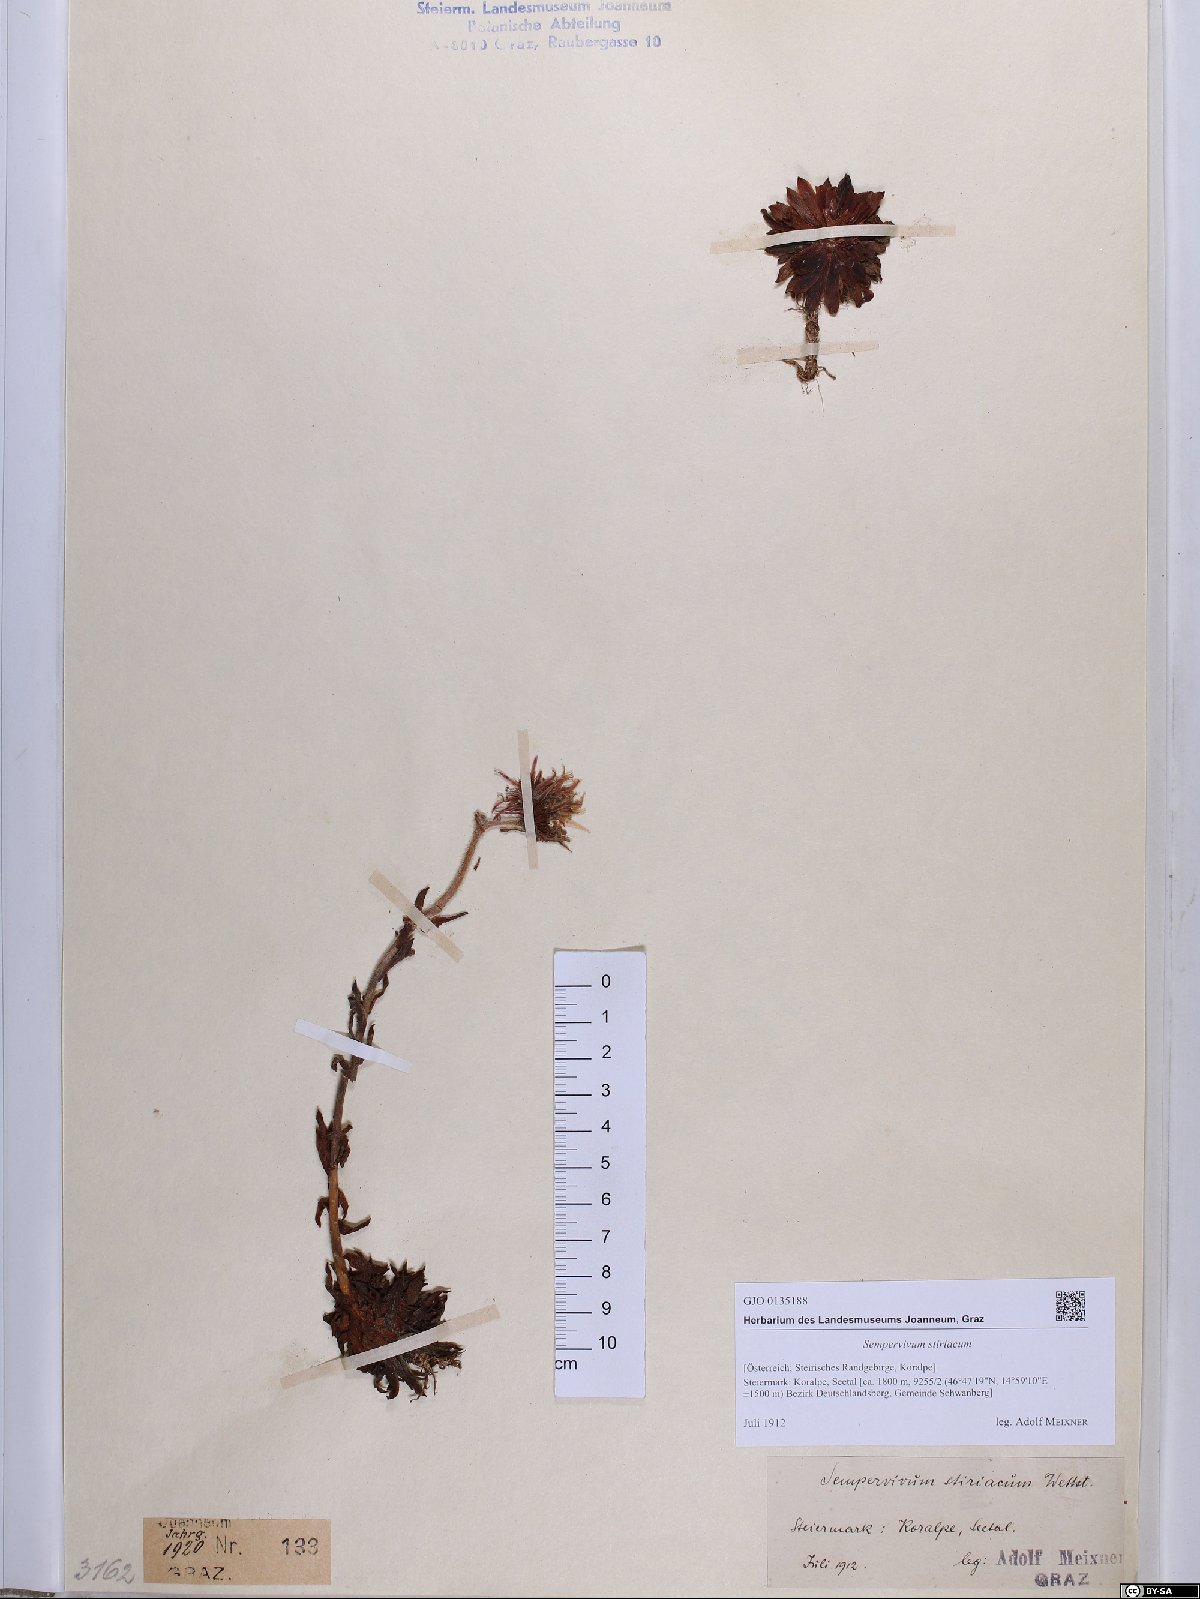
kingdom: Plantae
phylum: Tracheophyta
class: Magnoliopsida
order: Saxifragales
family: Crassulaceae
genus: Sempervivum
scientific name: Sempervivum montanum
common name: Mountain house-leek
